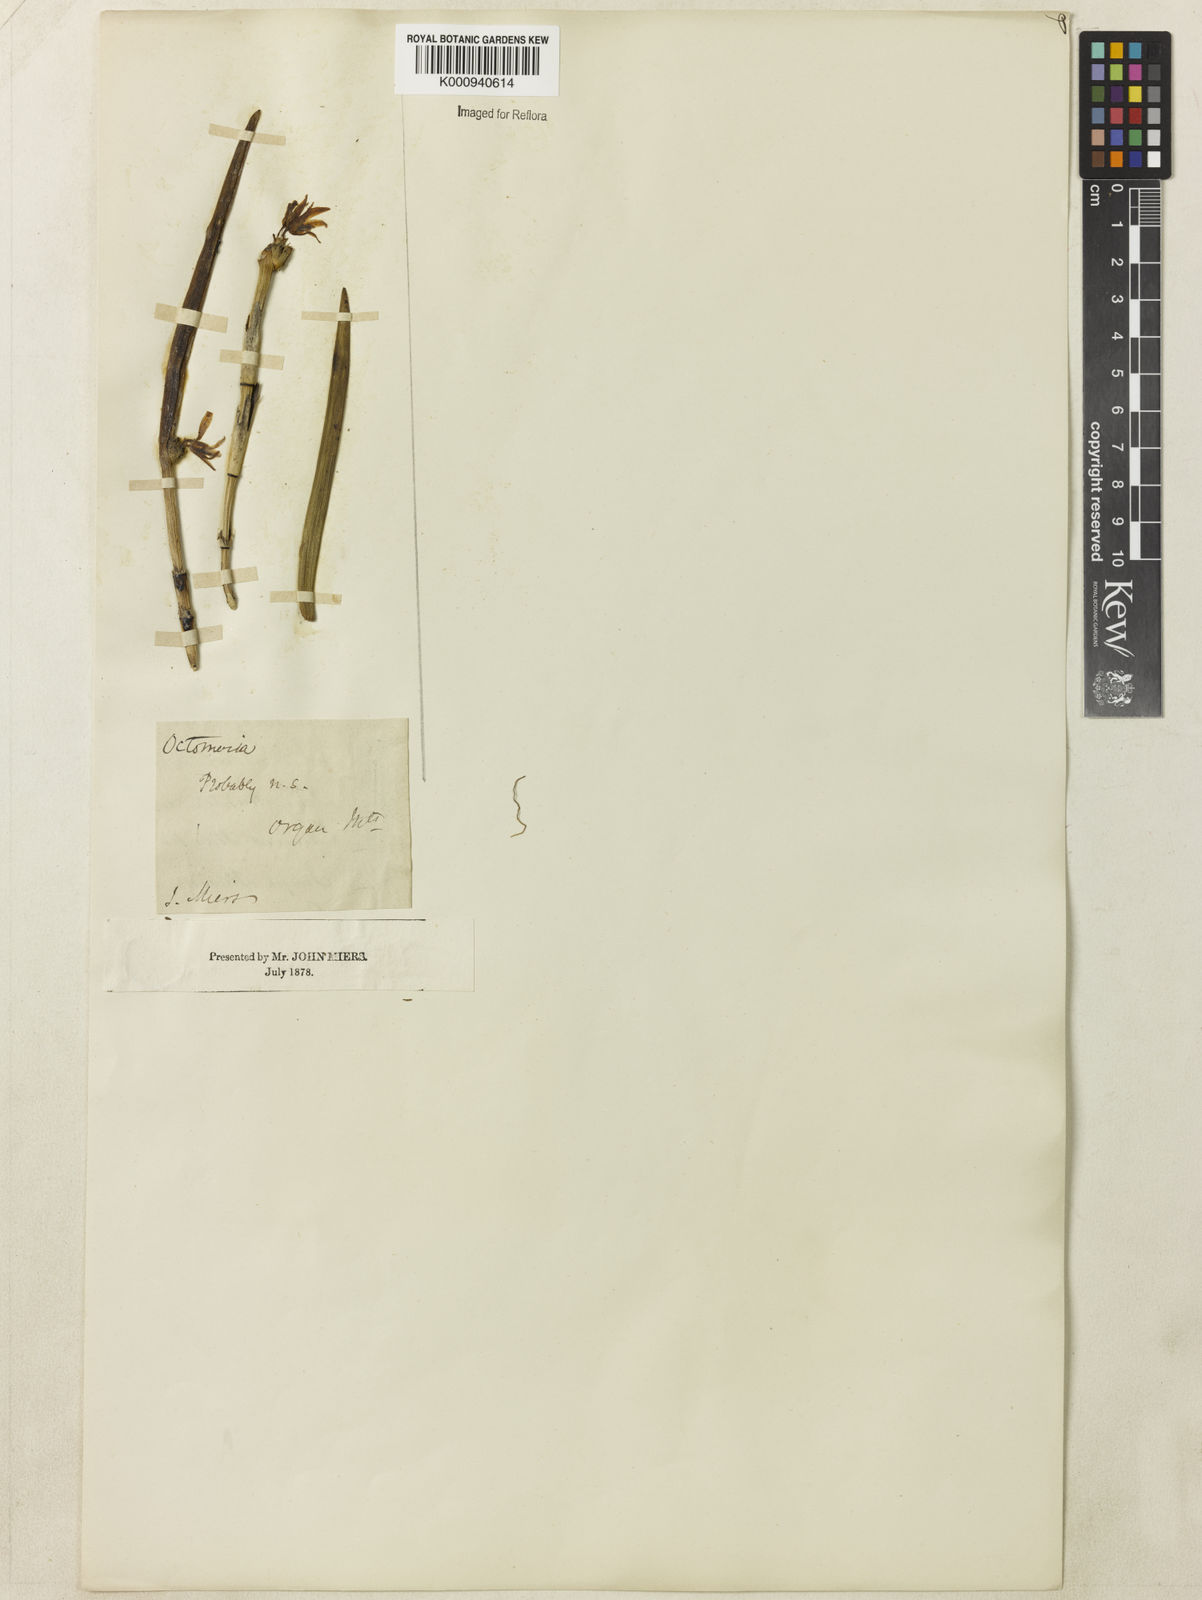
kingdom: Plantae
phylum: Tracheophyta
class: Liliopsida
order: Asparagales
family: Orchidaceae
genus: Octomeria
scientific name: Octomeria praestans
